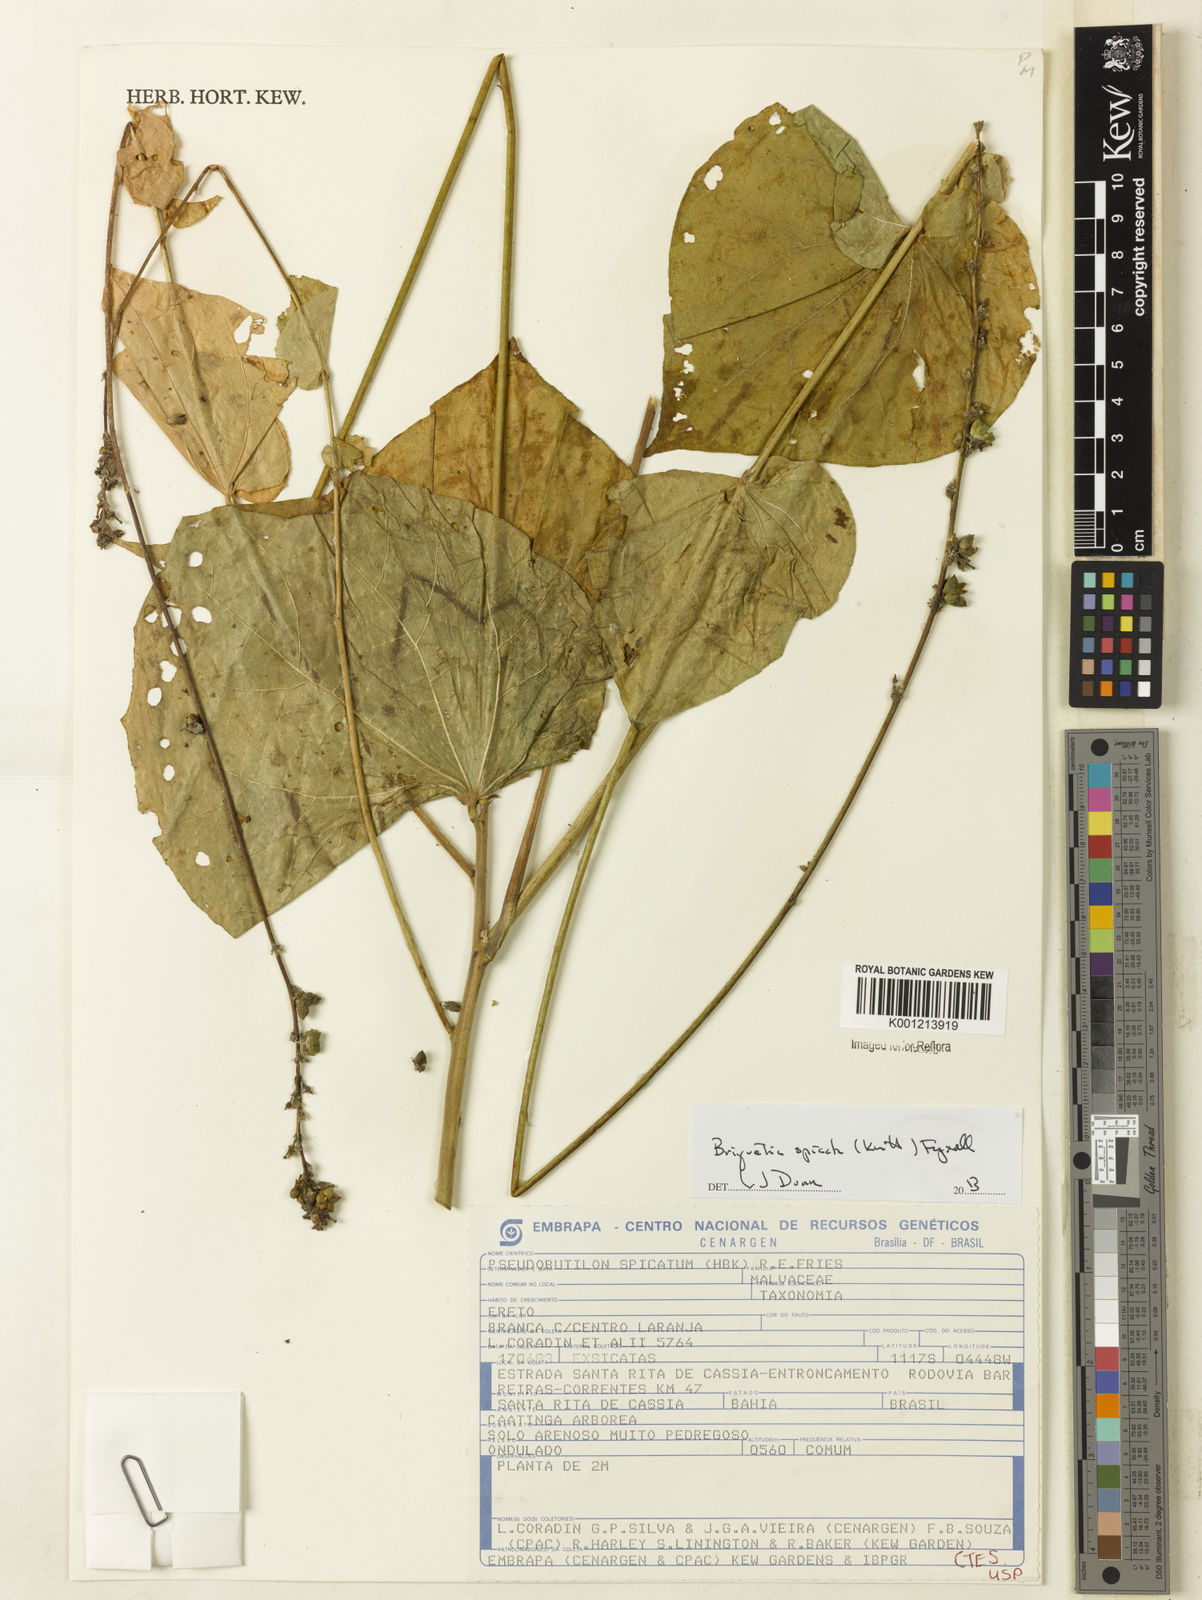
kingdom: Plantae
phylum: Tracheophyta
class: Magnoliopsida
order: Malvales
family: Malvaceae
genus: Allobriquetia
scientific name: Allobriquetia spicata
